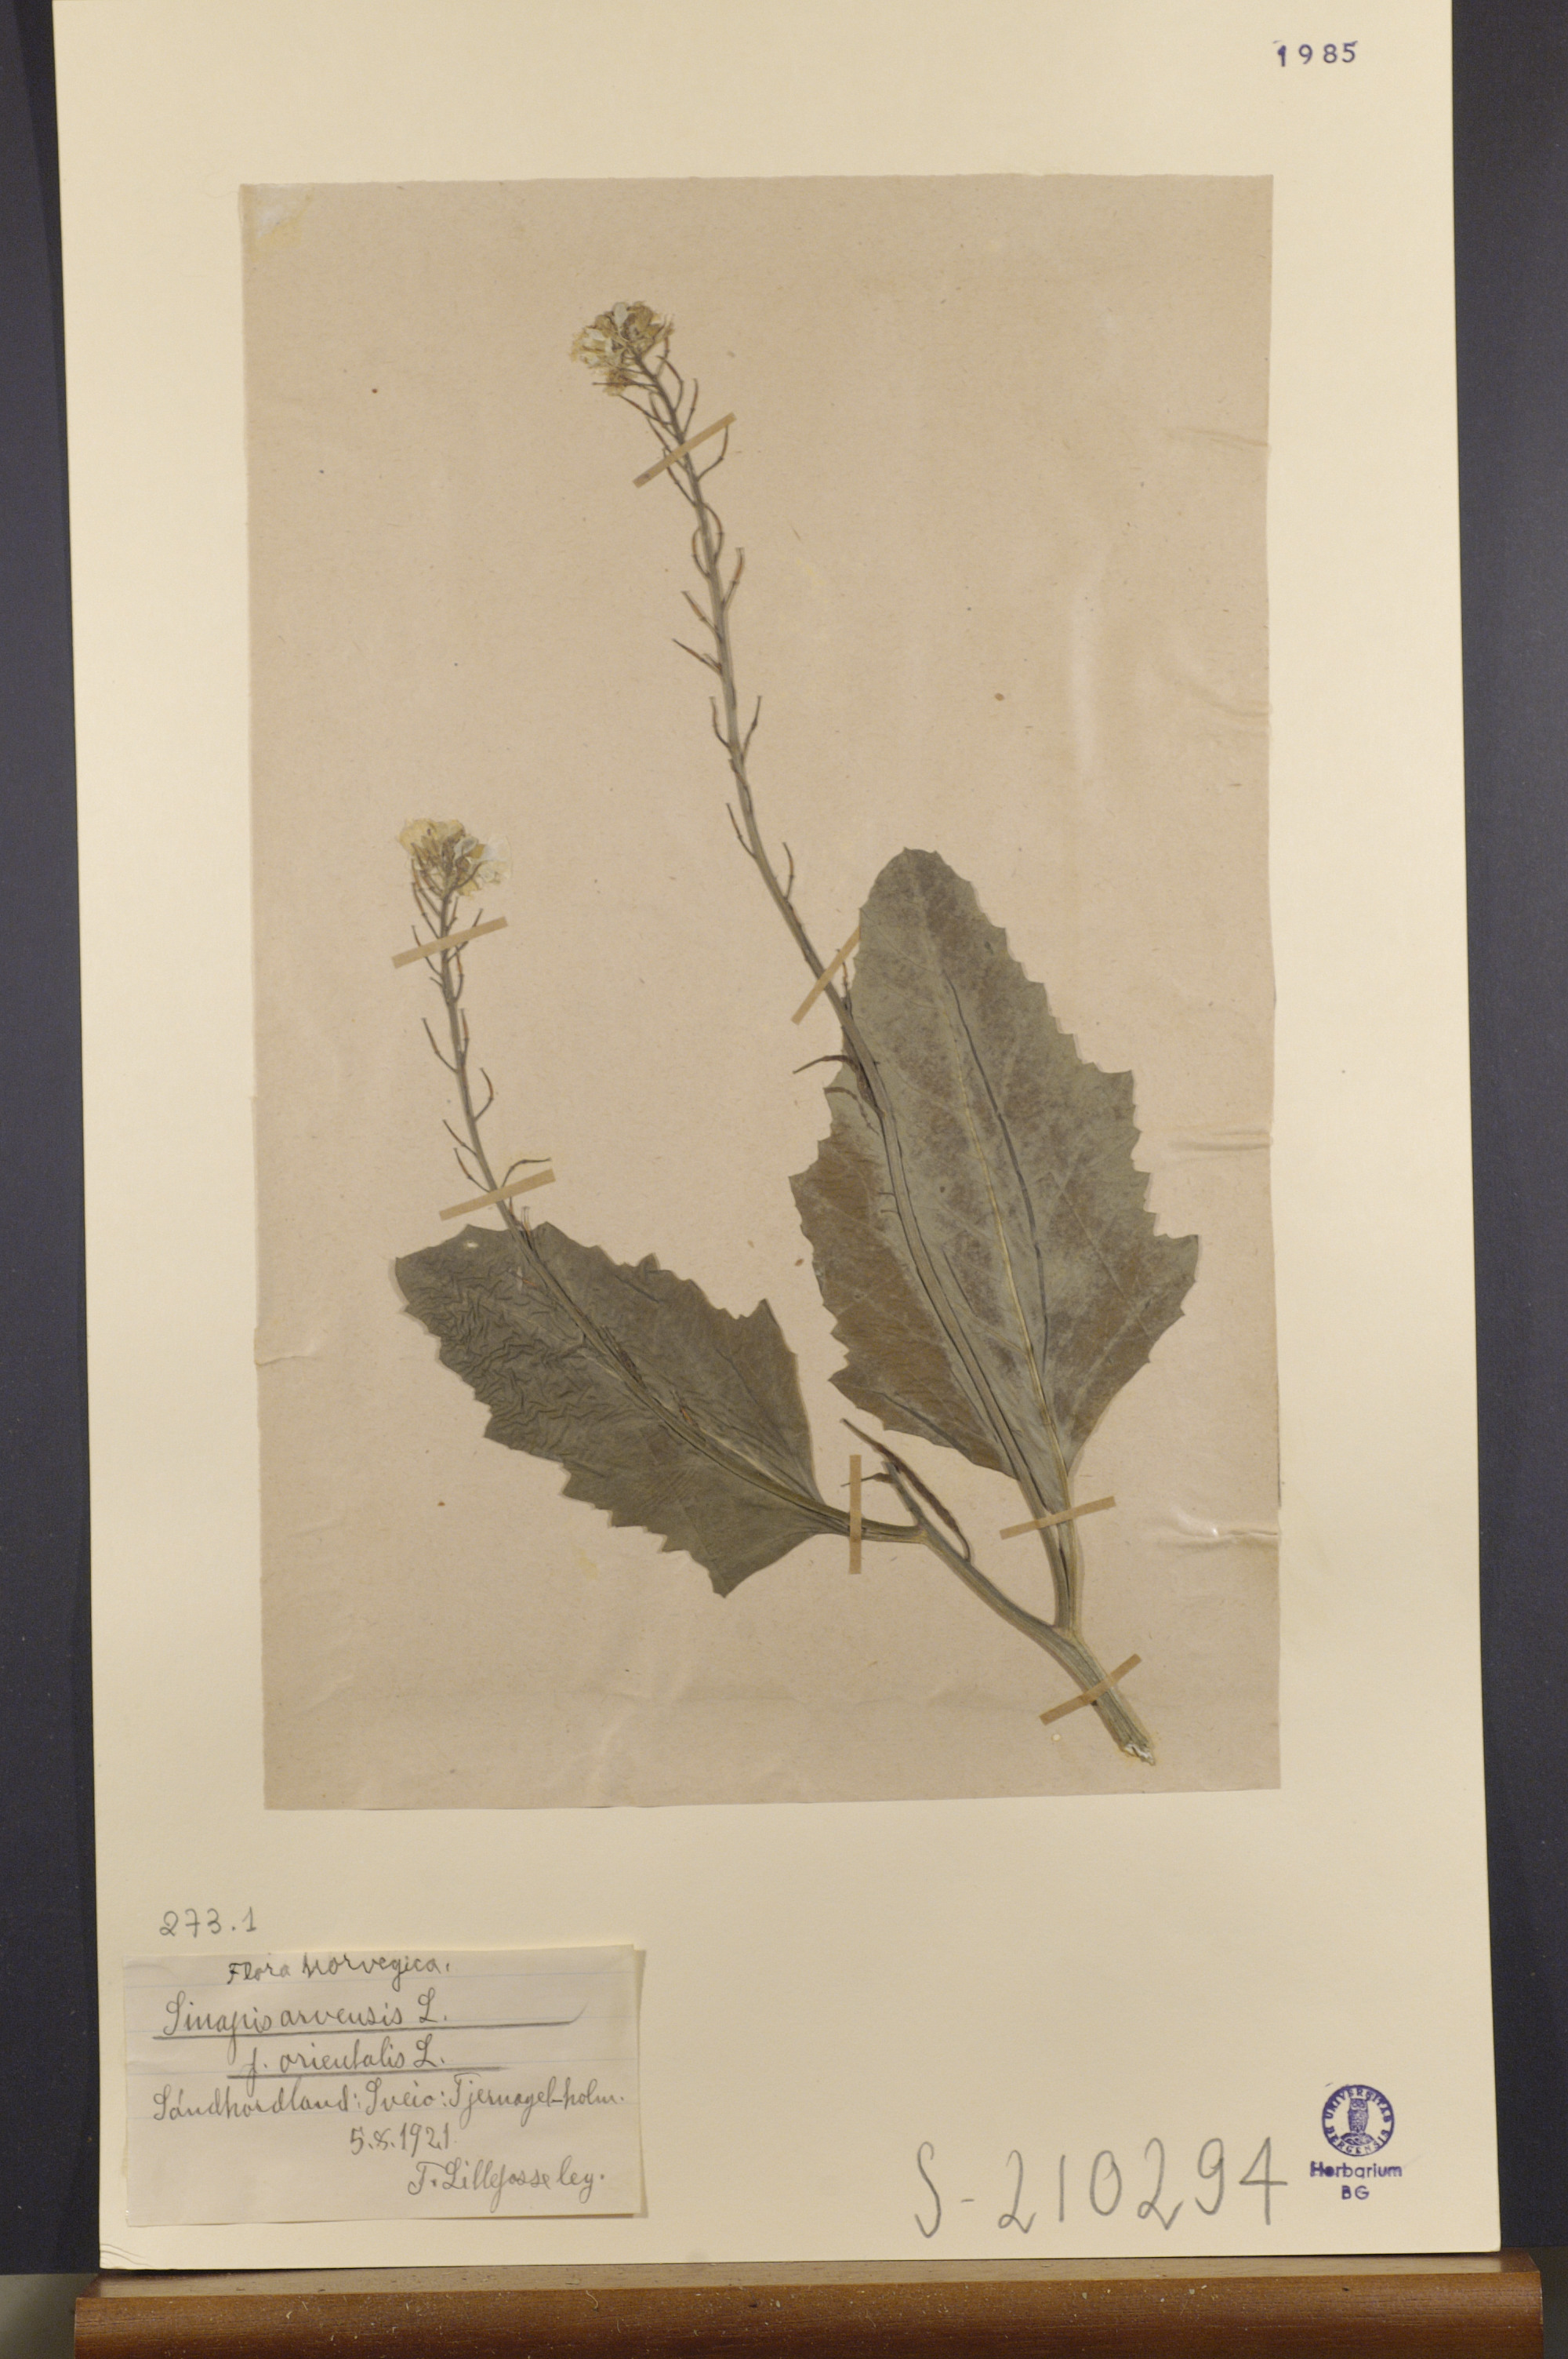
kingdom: Plantae
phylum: Tracheophyta
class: Magnoliopsida
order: Brassicales
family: Brassicaceae
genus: Sinapis
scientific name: Sinapis arvensis
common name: Charlock
